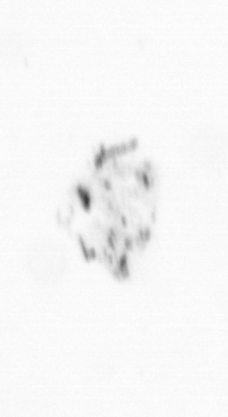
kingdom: Chromista
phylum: Ochrophyta
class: Bacillariophyceae
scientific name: Bacillariophyceae
